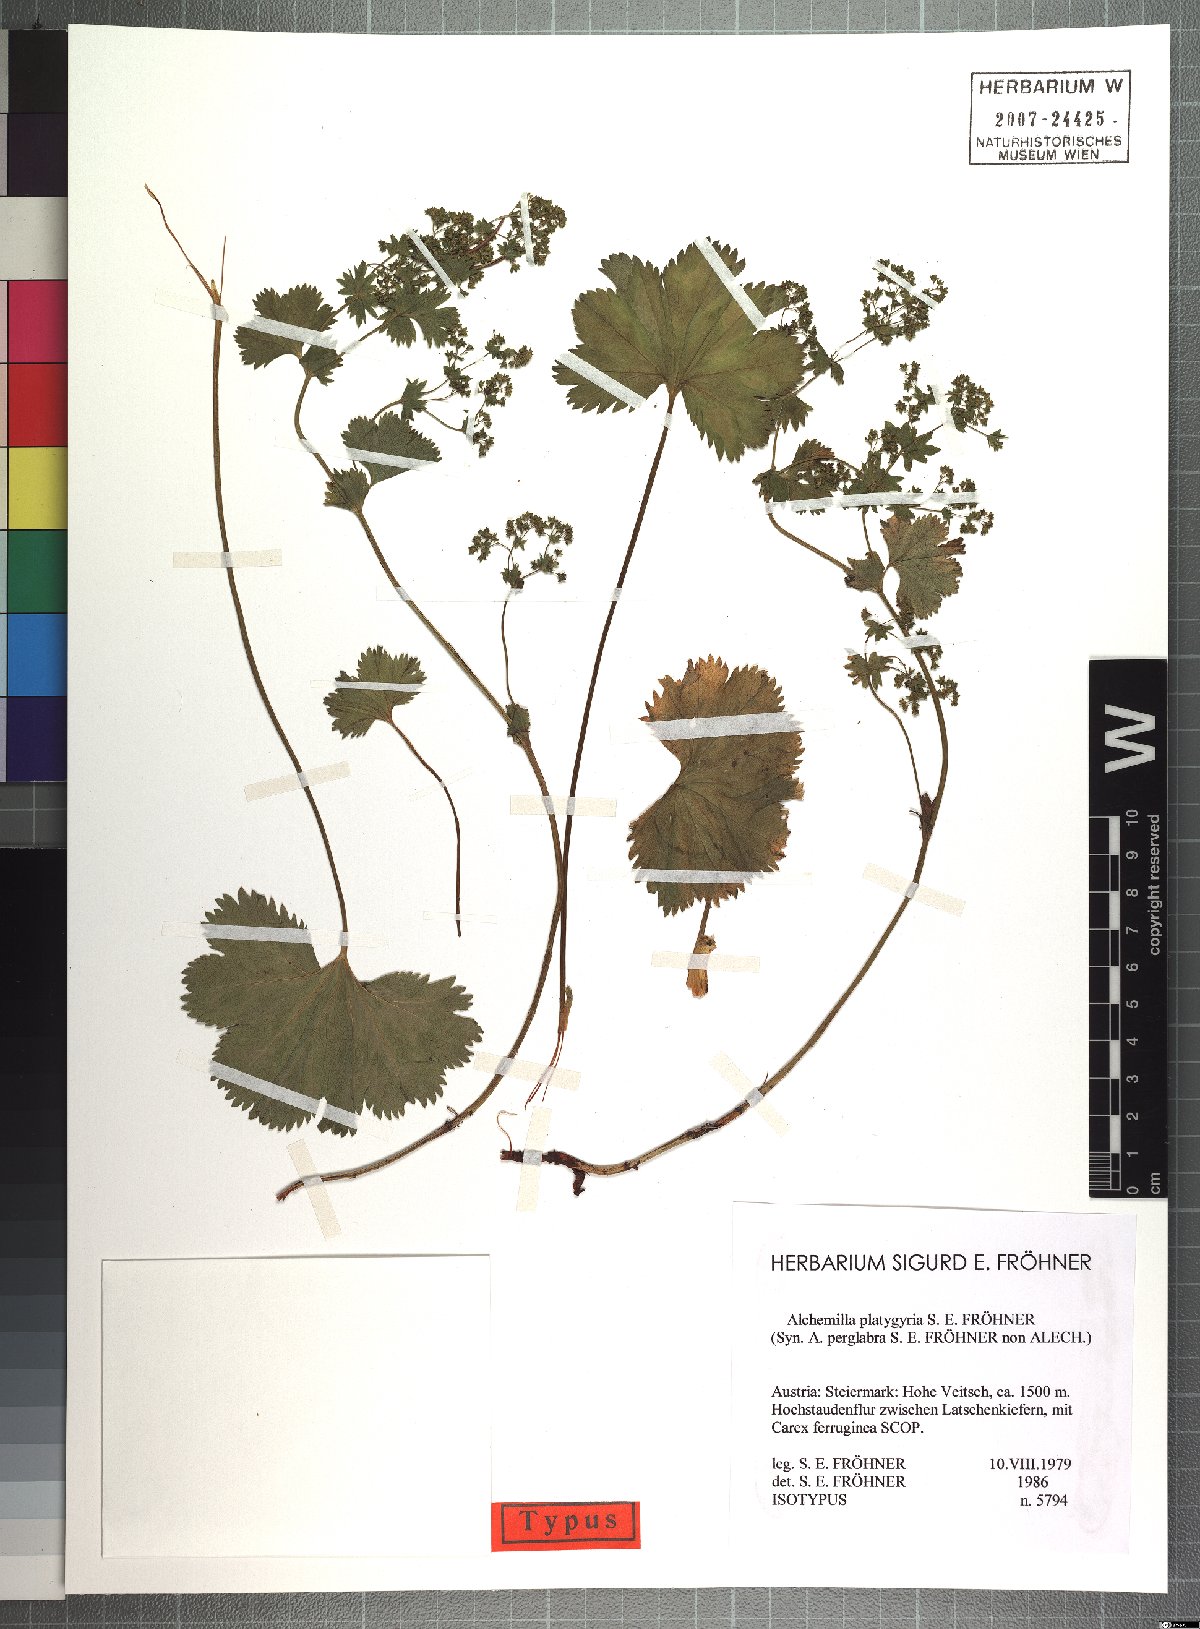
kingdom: Plantae
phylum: Tracheophyta
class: Magnoliopsida
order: Rosales
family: Rosaceae
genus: Alchemilla
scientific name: Alchemilla platygyria
